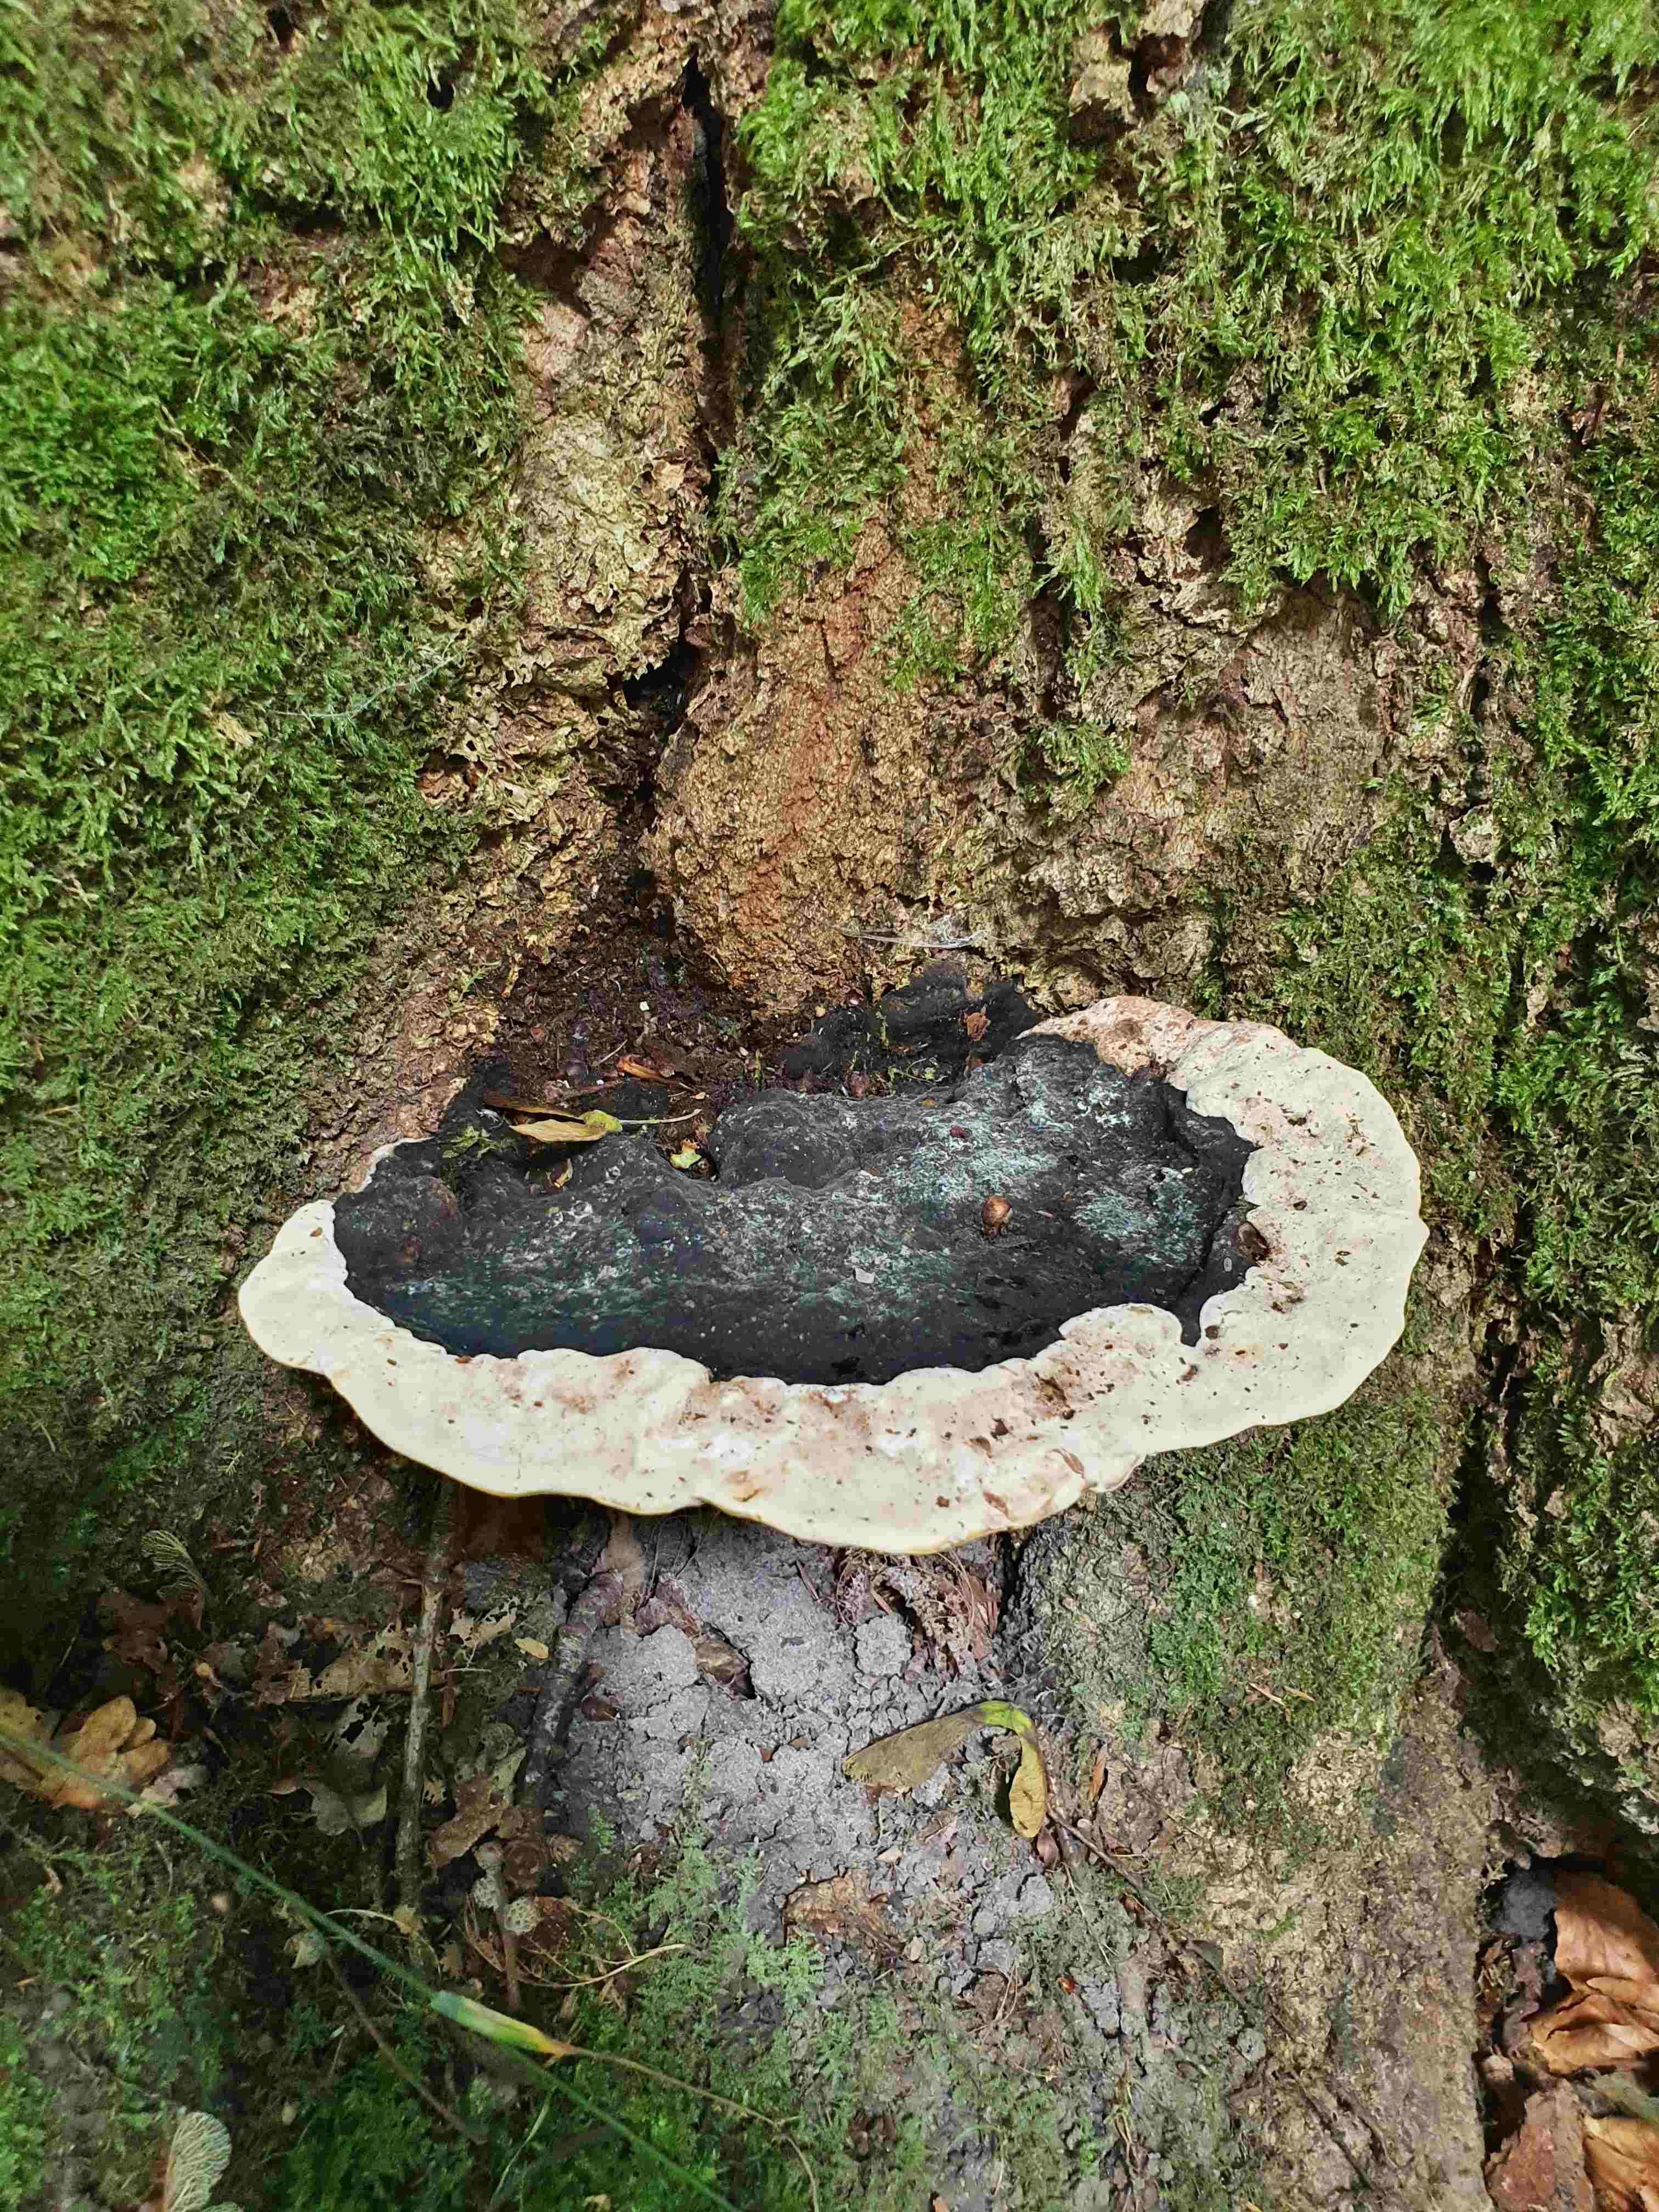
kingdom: Fungi
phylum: Basidiomycota
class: Agaricomycetes
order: Polyporales
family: Polyporaceae
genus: Vanderbylia
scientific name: Vanderbylia fraxinea
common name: stor kanelporesvamp
